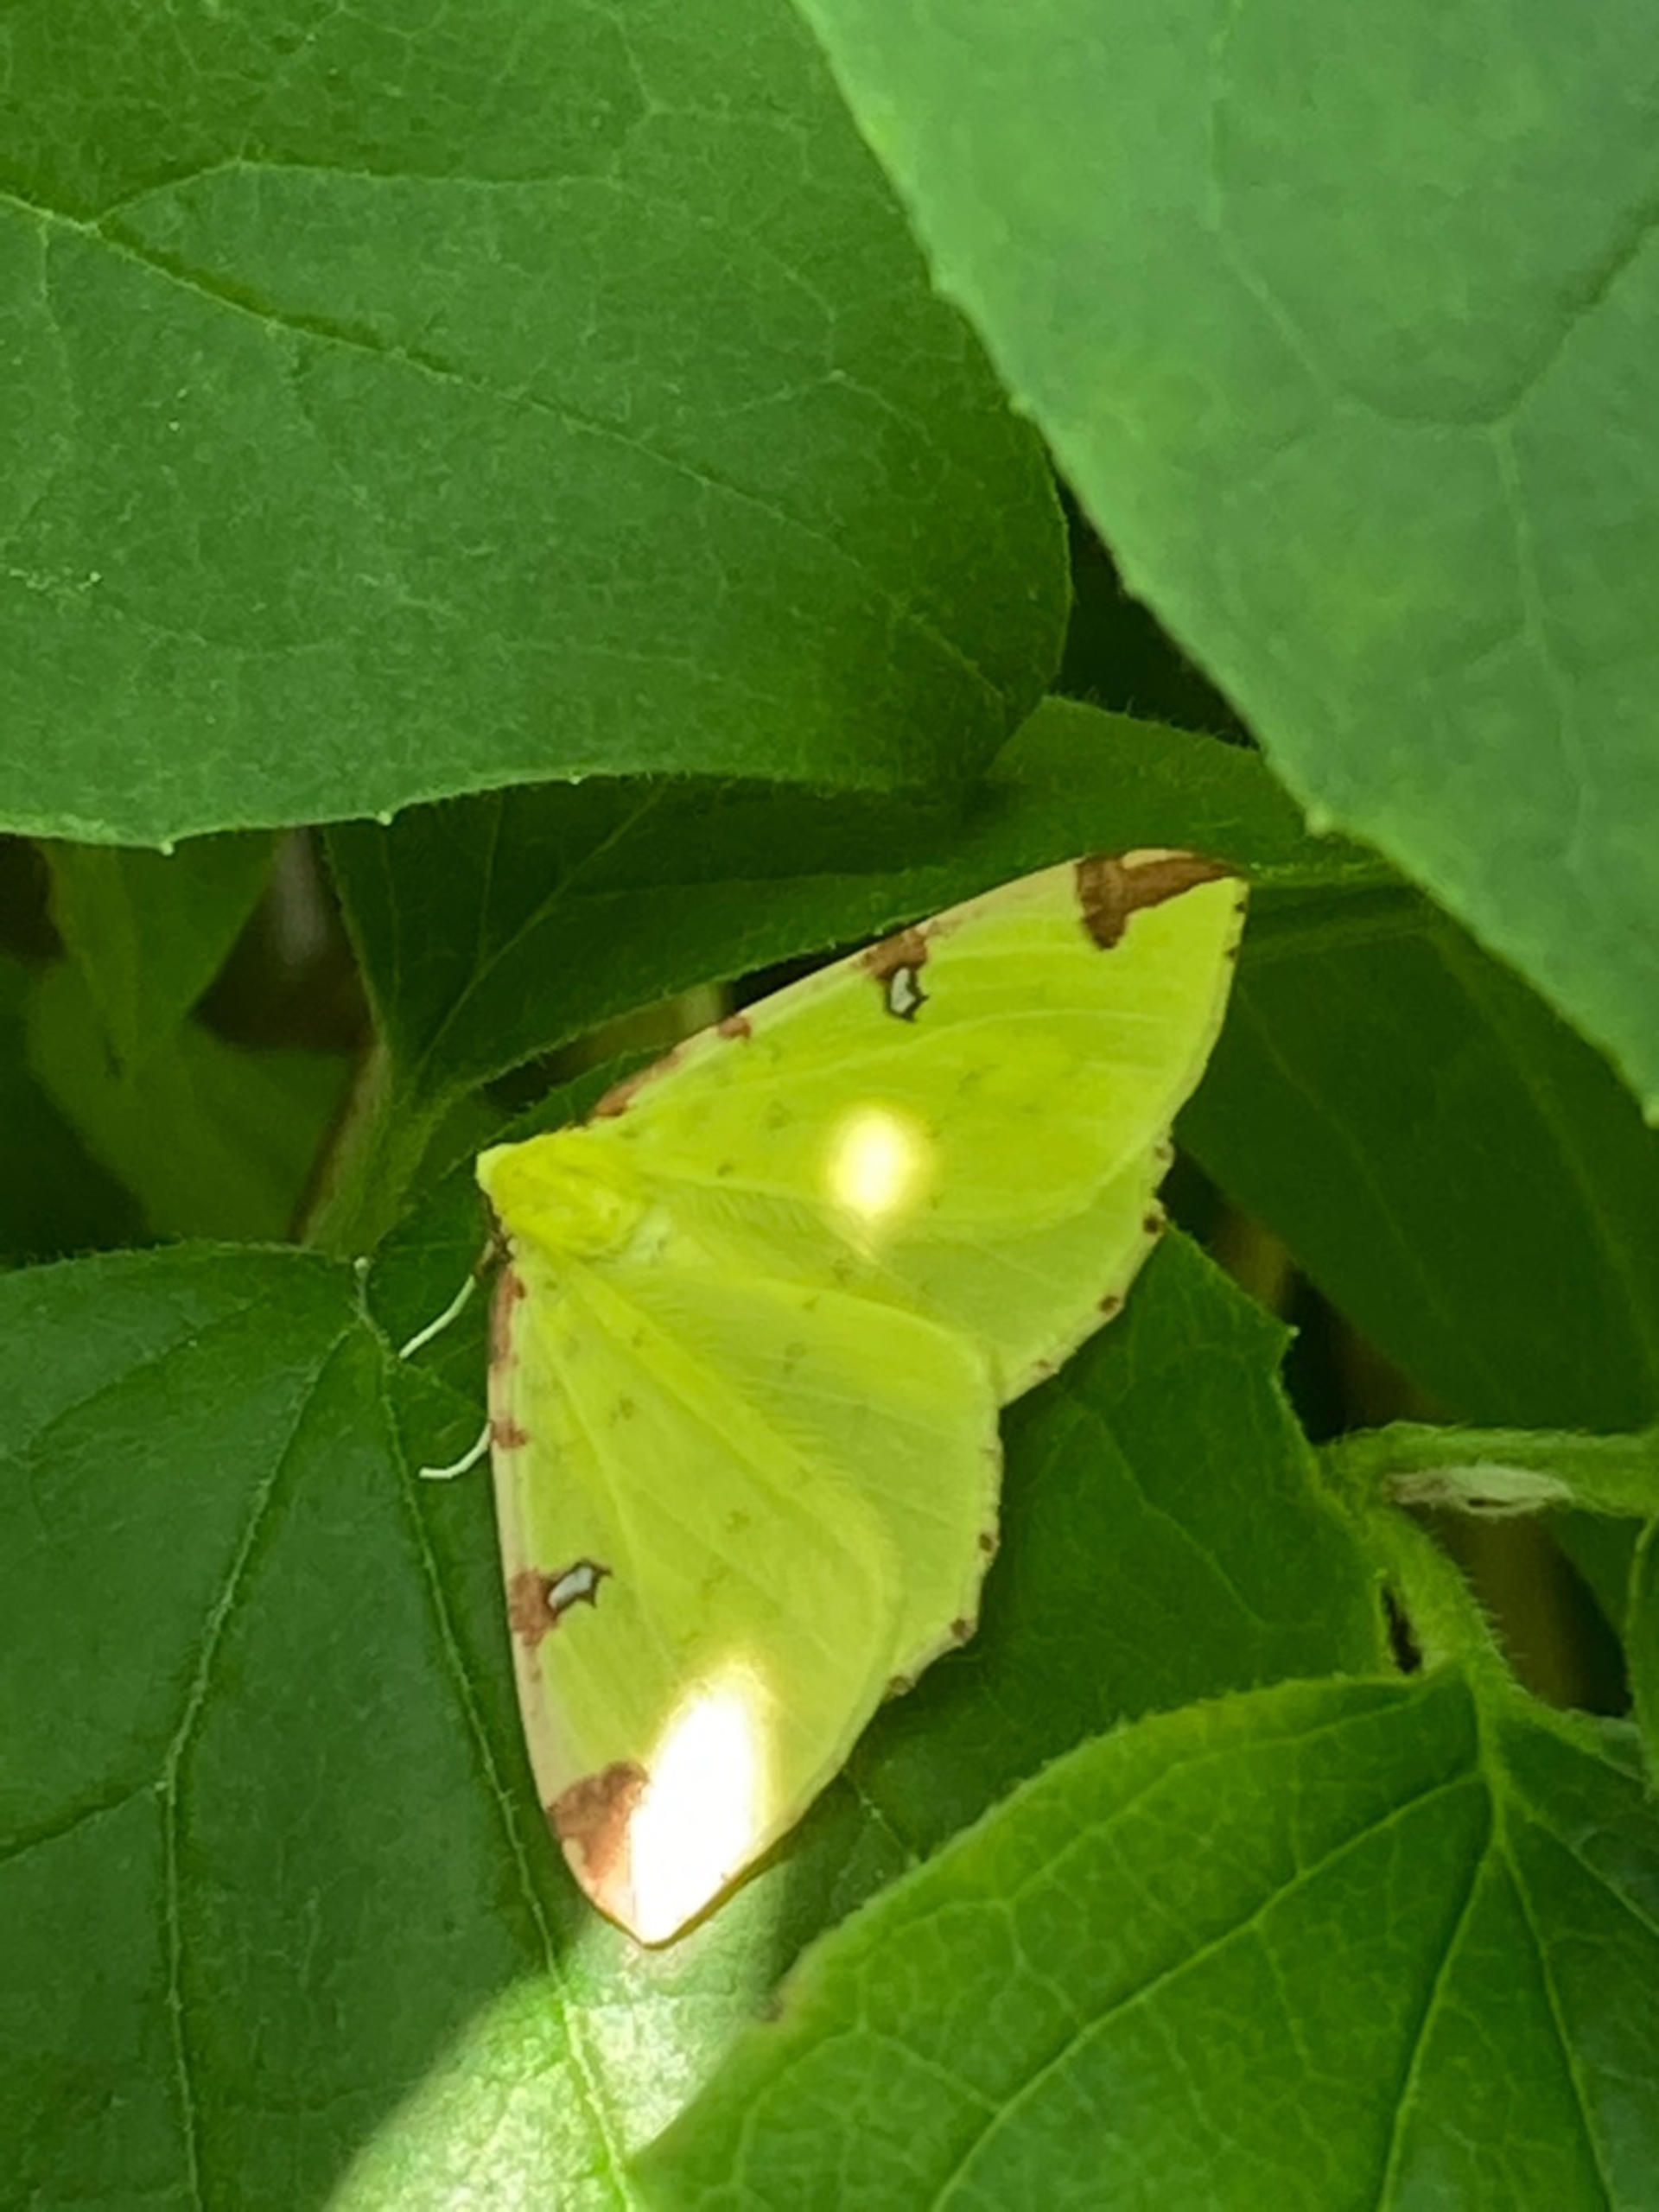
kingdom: Animalia
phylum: Arthropoda
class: Insecta
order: Lepidoptera
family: Geometridae
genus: Opisthograptis
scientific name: Opisthograptis luteolata
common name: Citronmåler
